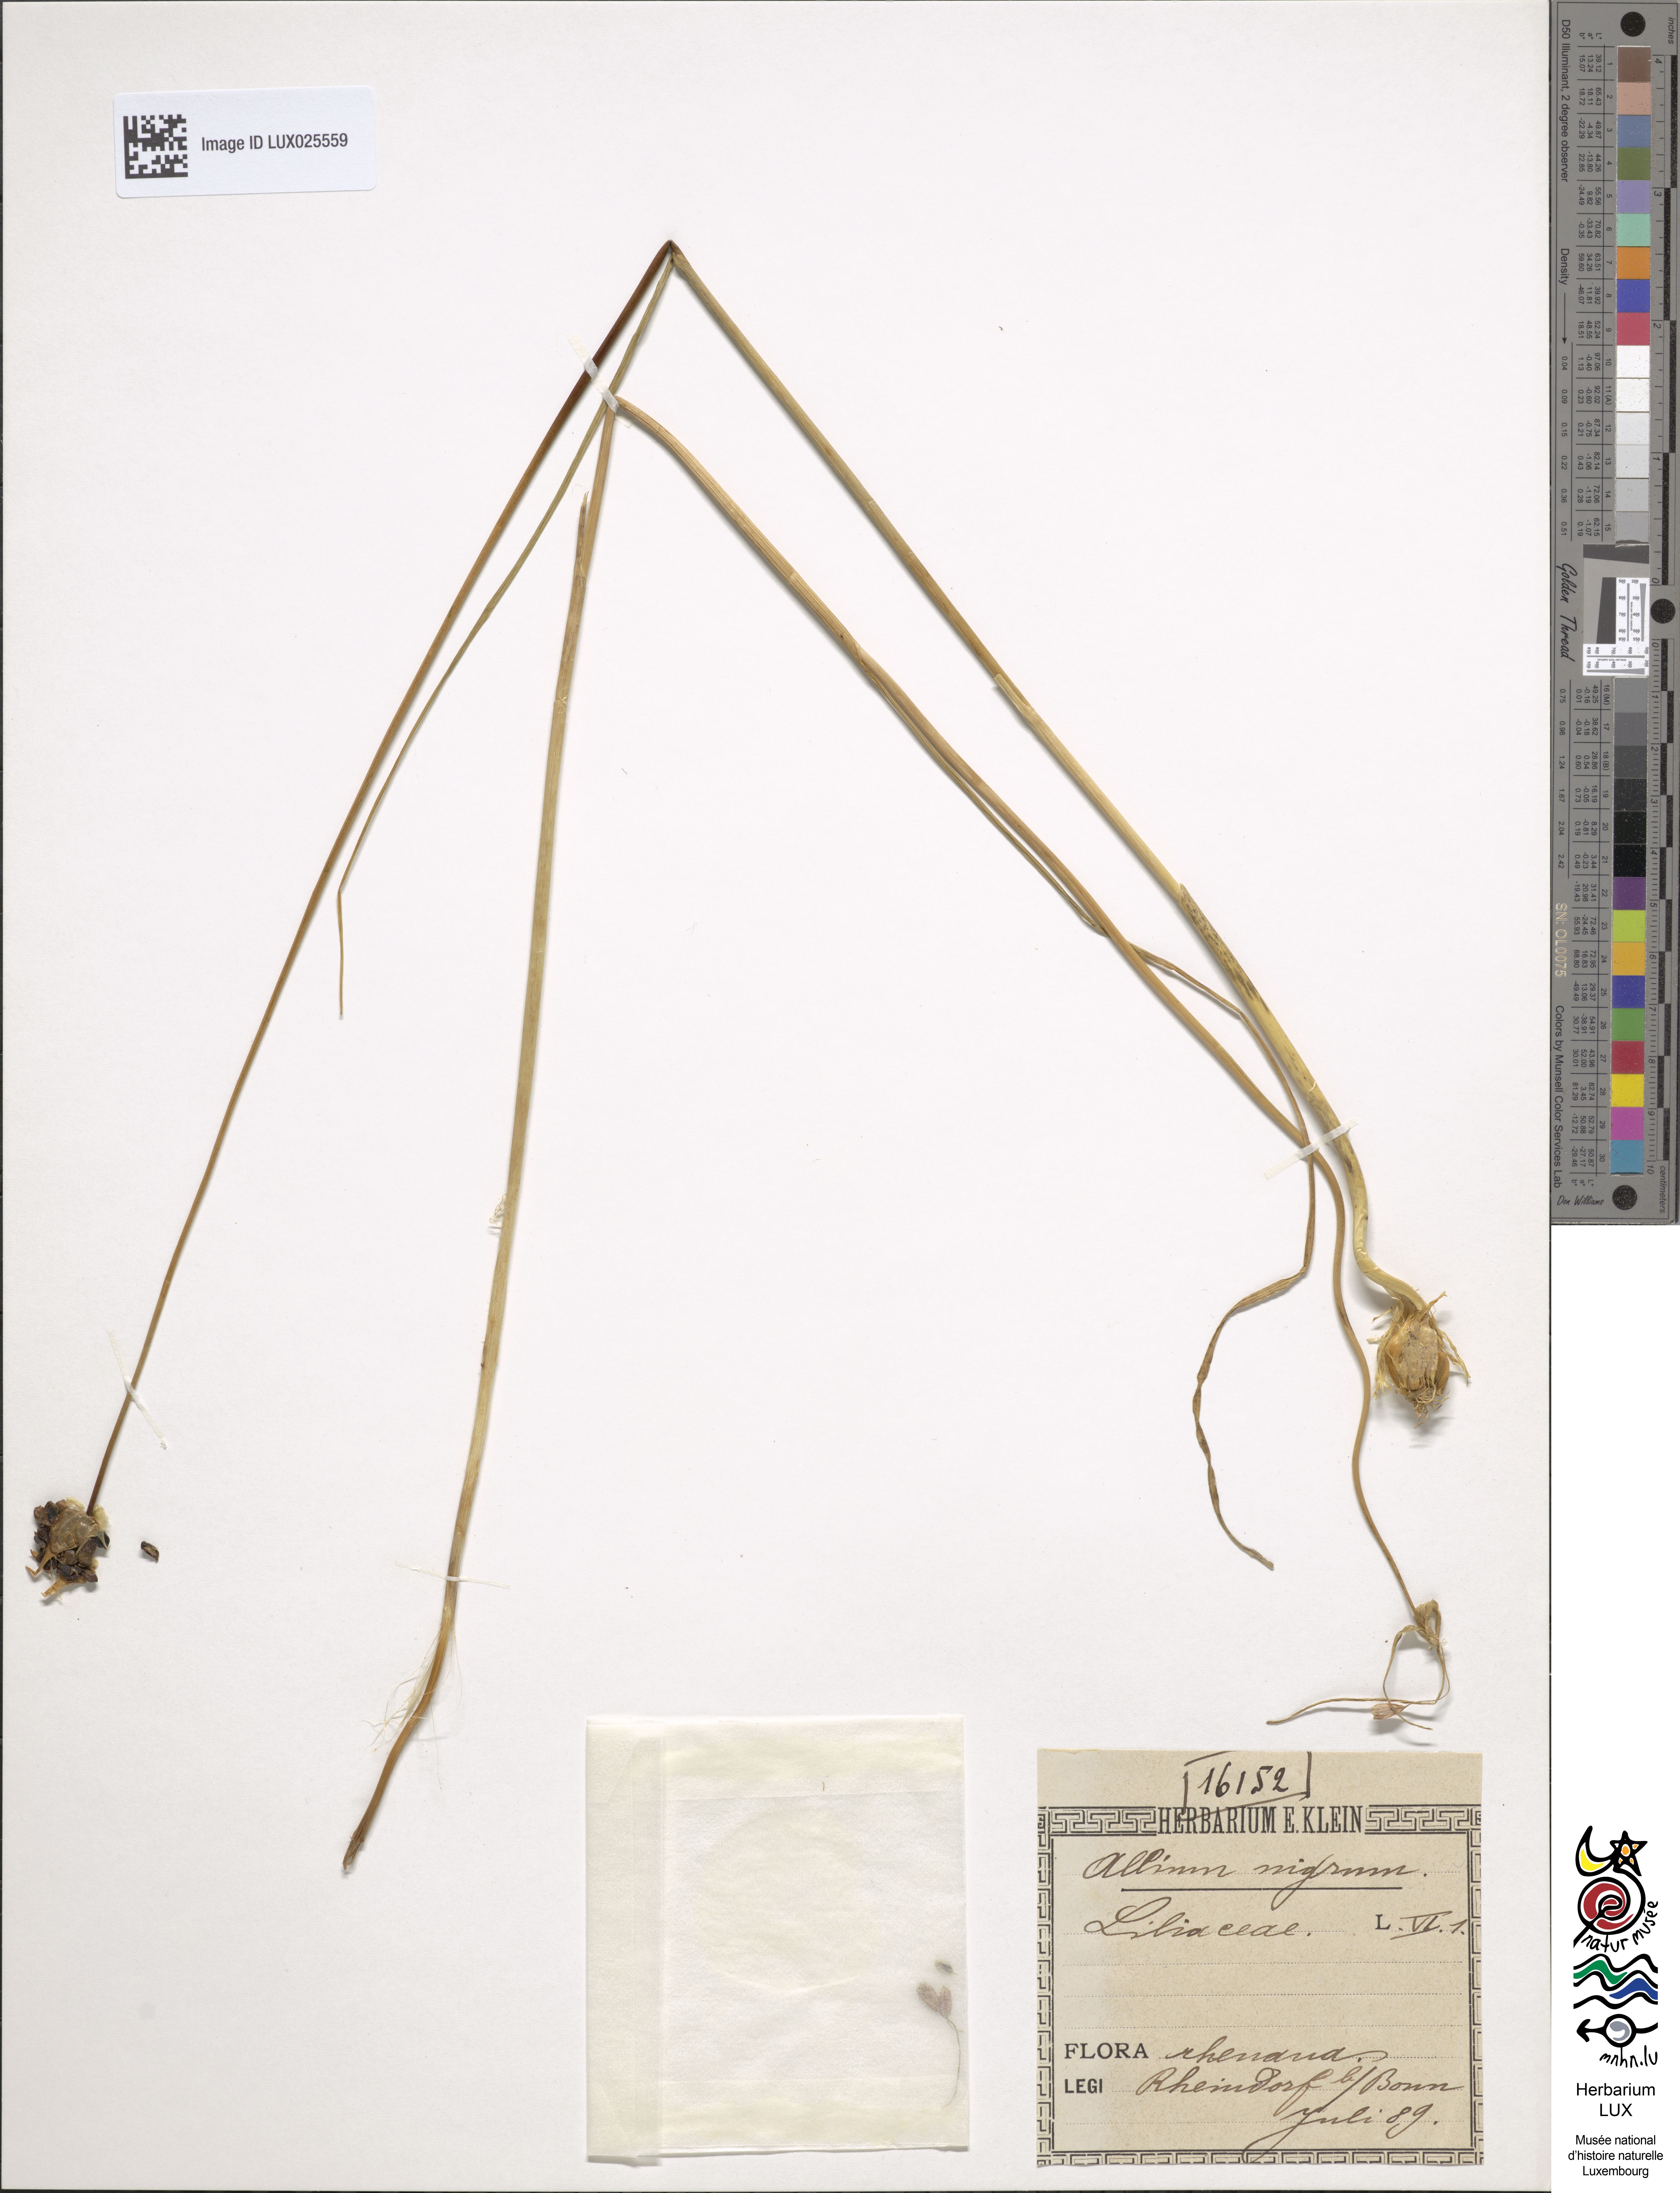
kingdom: Plantae
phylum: Tracheophyta
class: Liliopsida
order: Asparagales
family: Amaryllidaceae
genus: Allium
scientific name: Allium nigrum
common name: Black garlic
